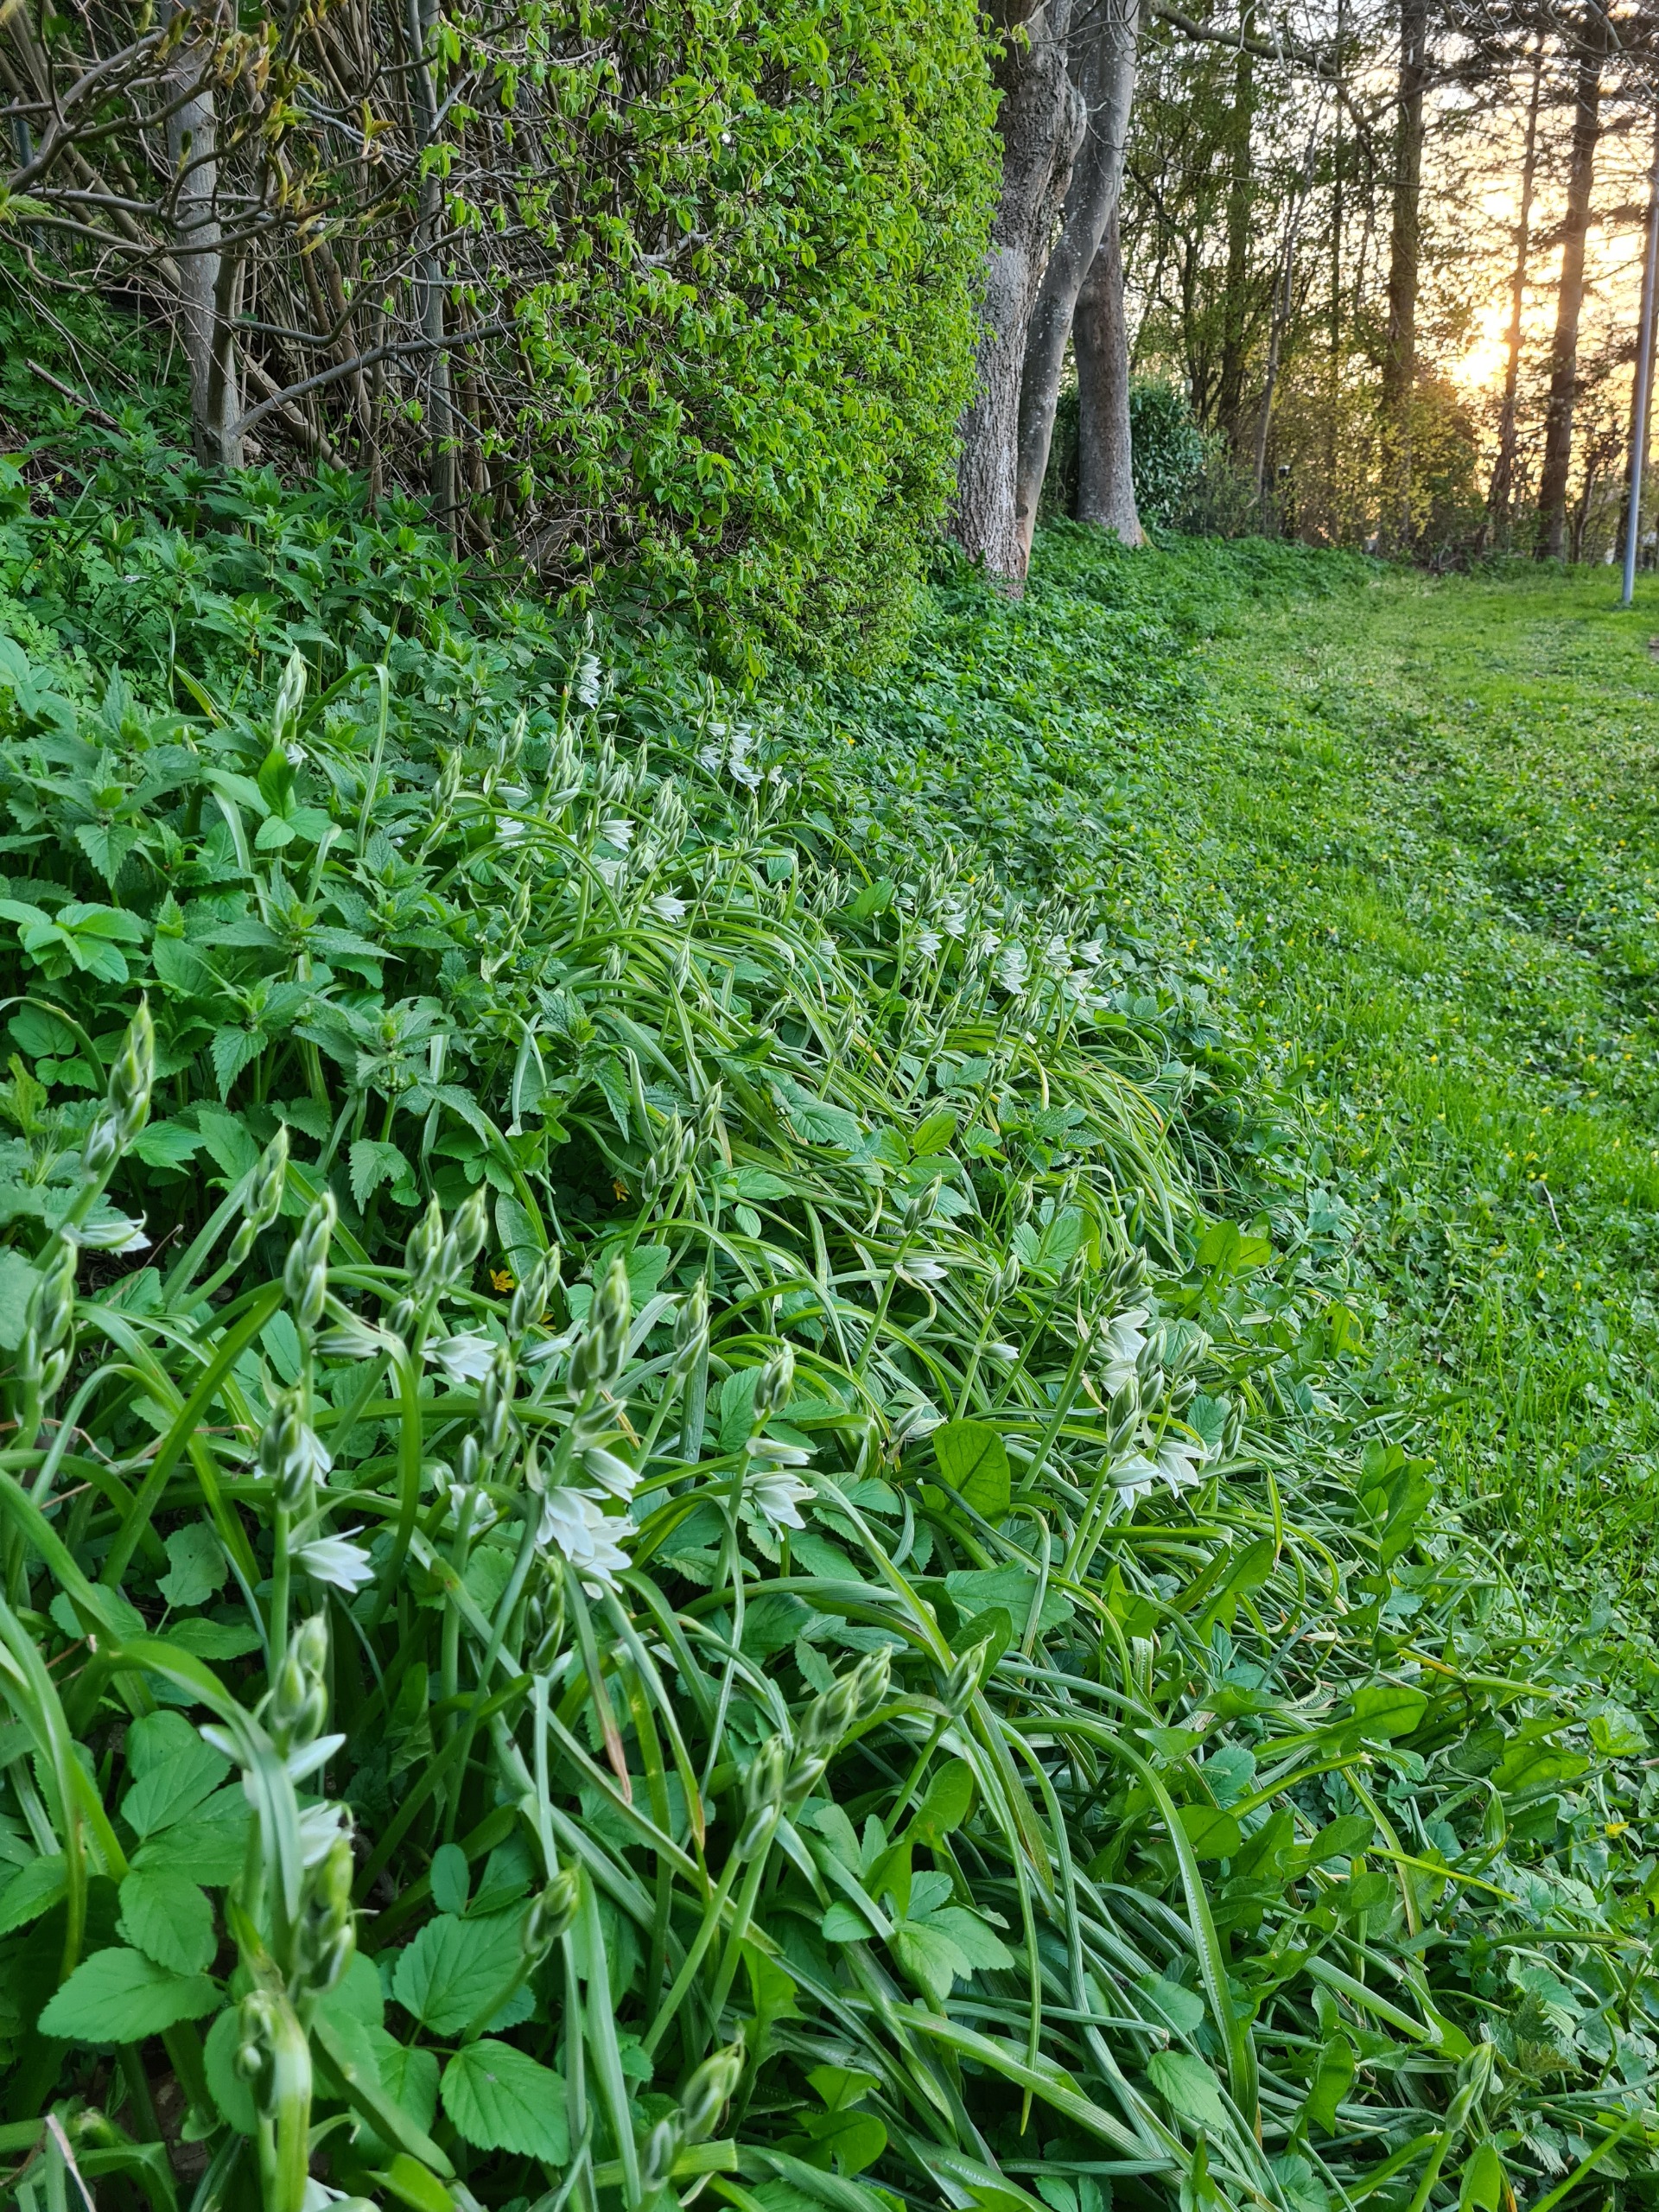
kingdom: Plantae
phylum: Tracheophyta
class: Liliopsida
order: Asparagales
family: Asparagaceae
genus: Ornithogalum
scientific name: Ornithogalum nutans
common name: Nikkende fuglemælk
